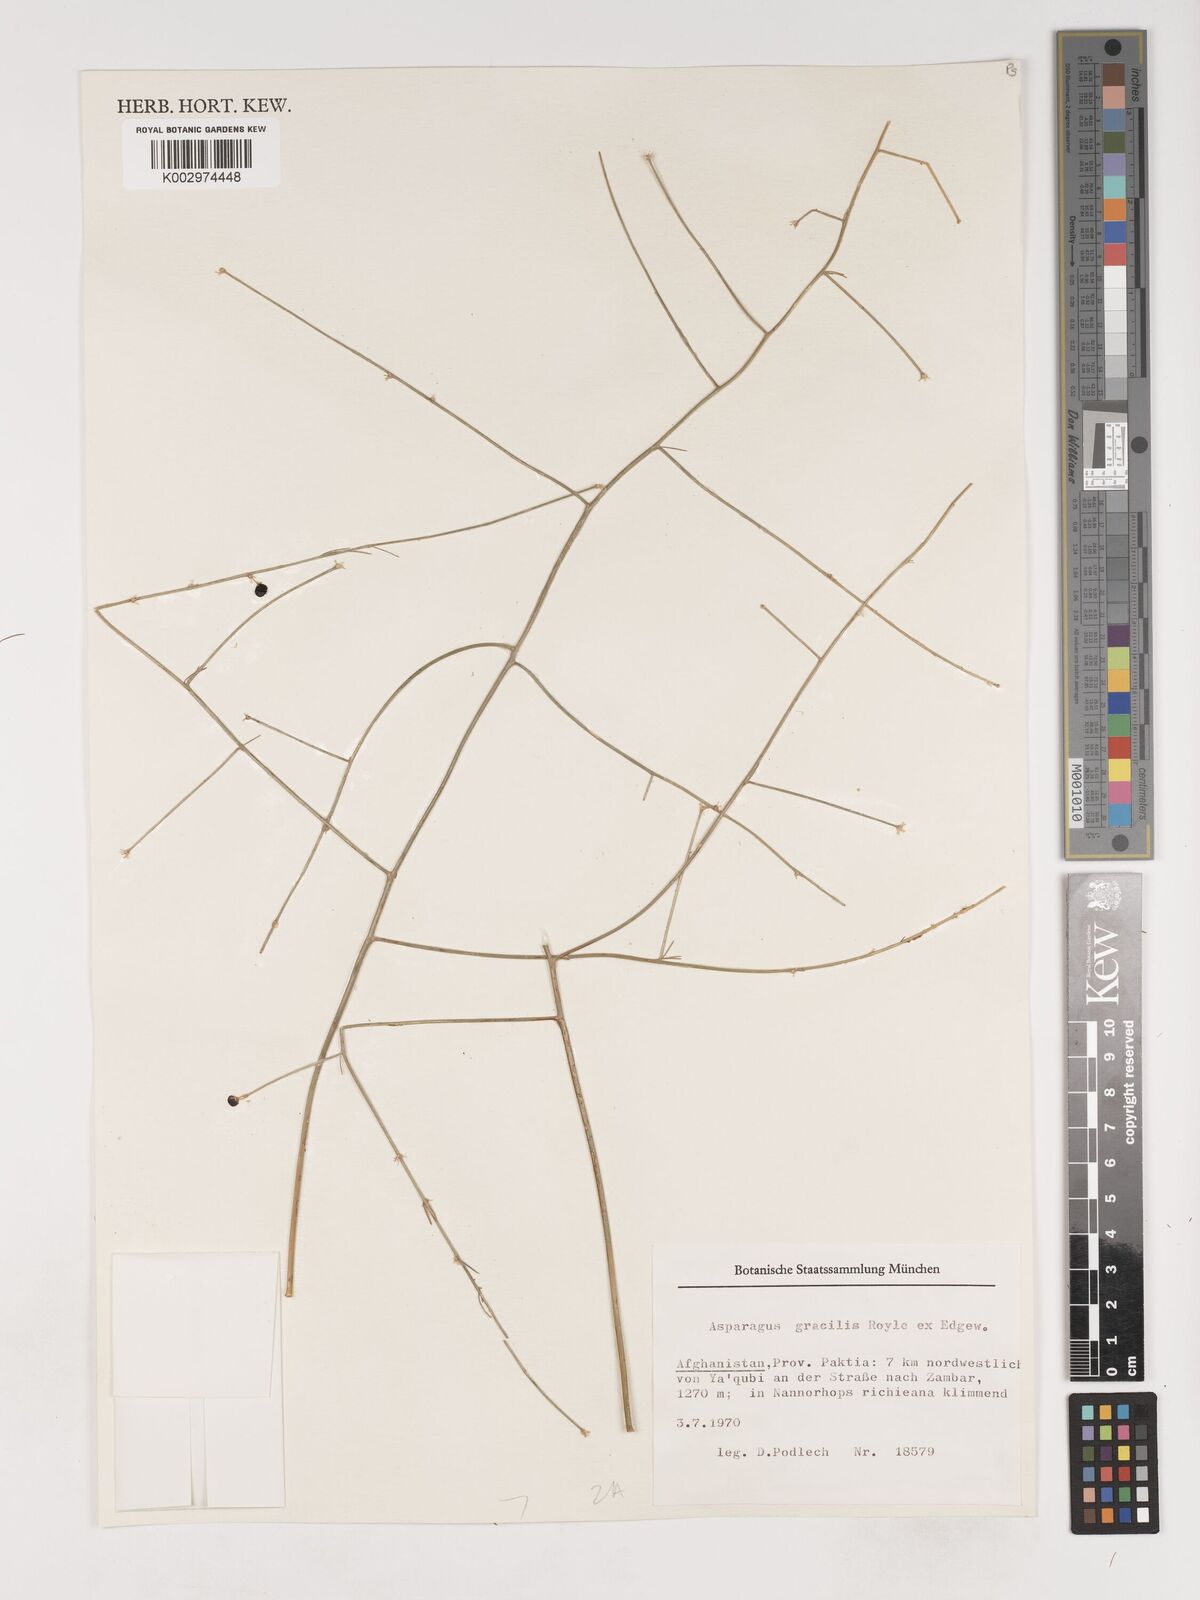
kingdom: Plantae
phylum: Tracheophyta
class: Liliopsida
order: Asparagales
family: Asparagaceae
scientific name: Asparagaceae
